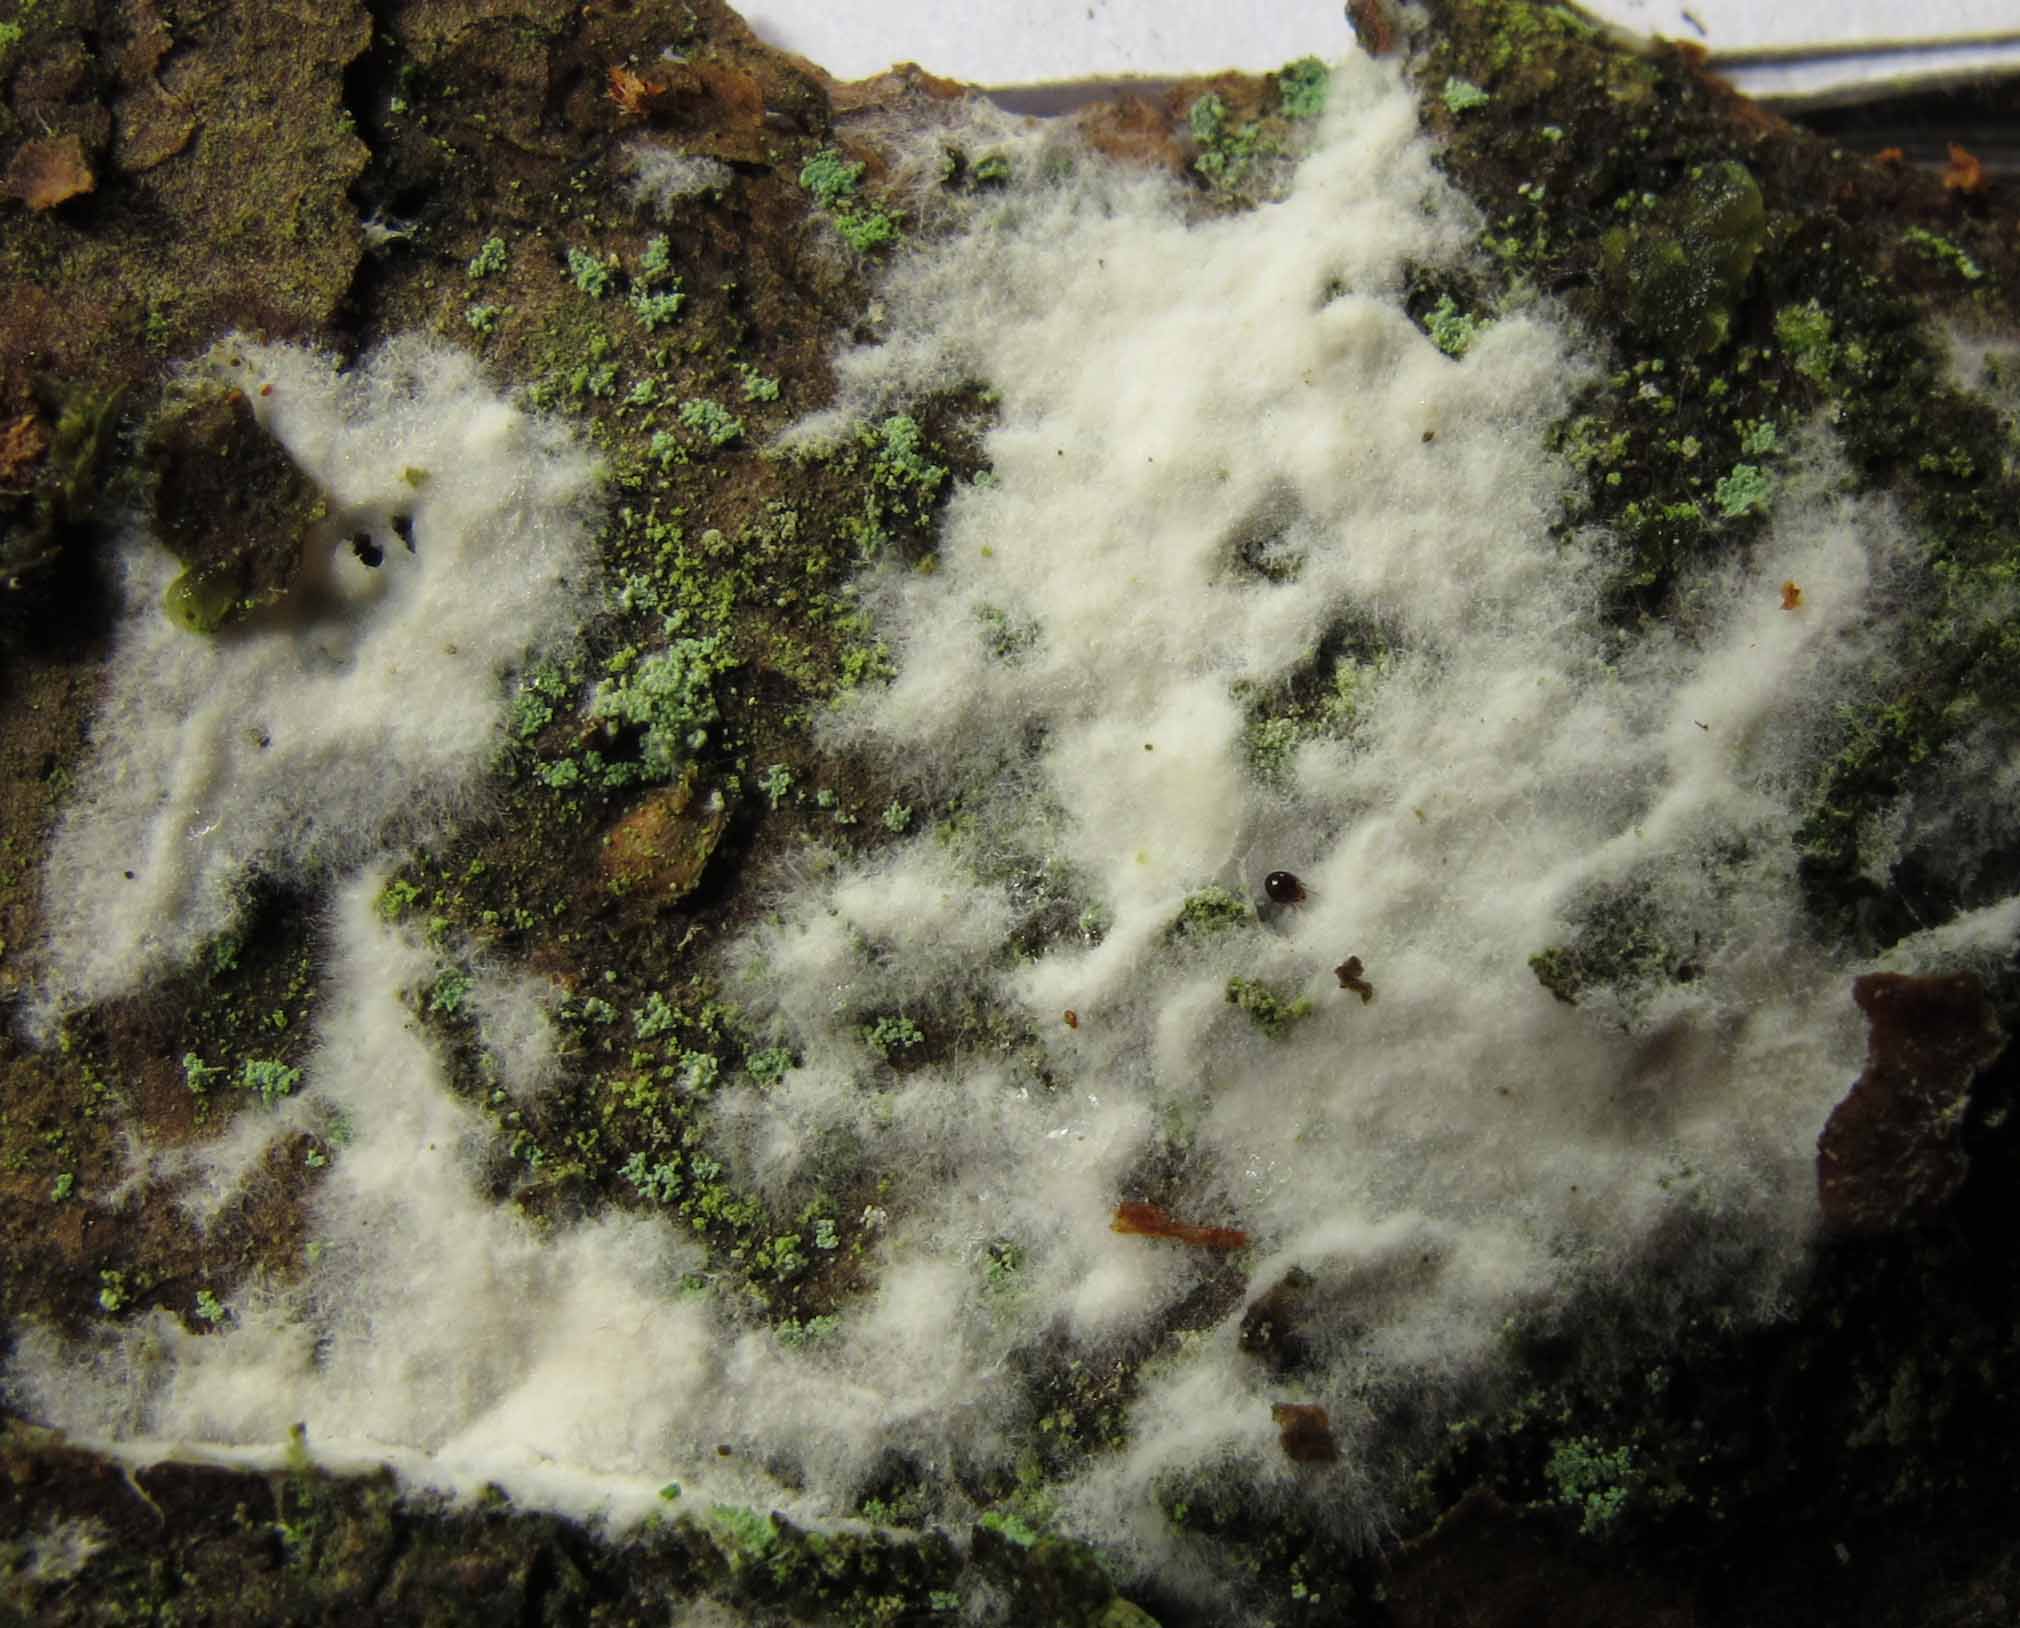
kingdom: Fungi
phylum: Basidiomycota
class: Atractiellomycetes
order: Atractiellales
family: Phleogenaceae
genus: Saccosoma
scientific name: Saccosoma farinaceum
